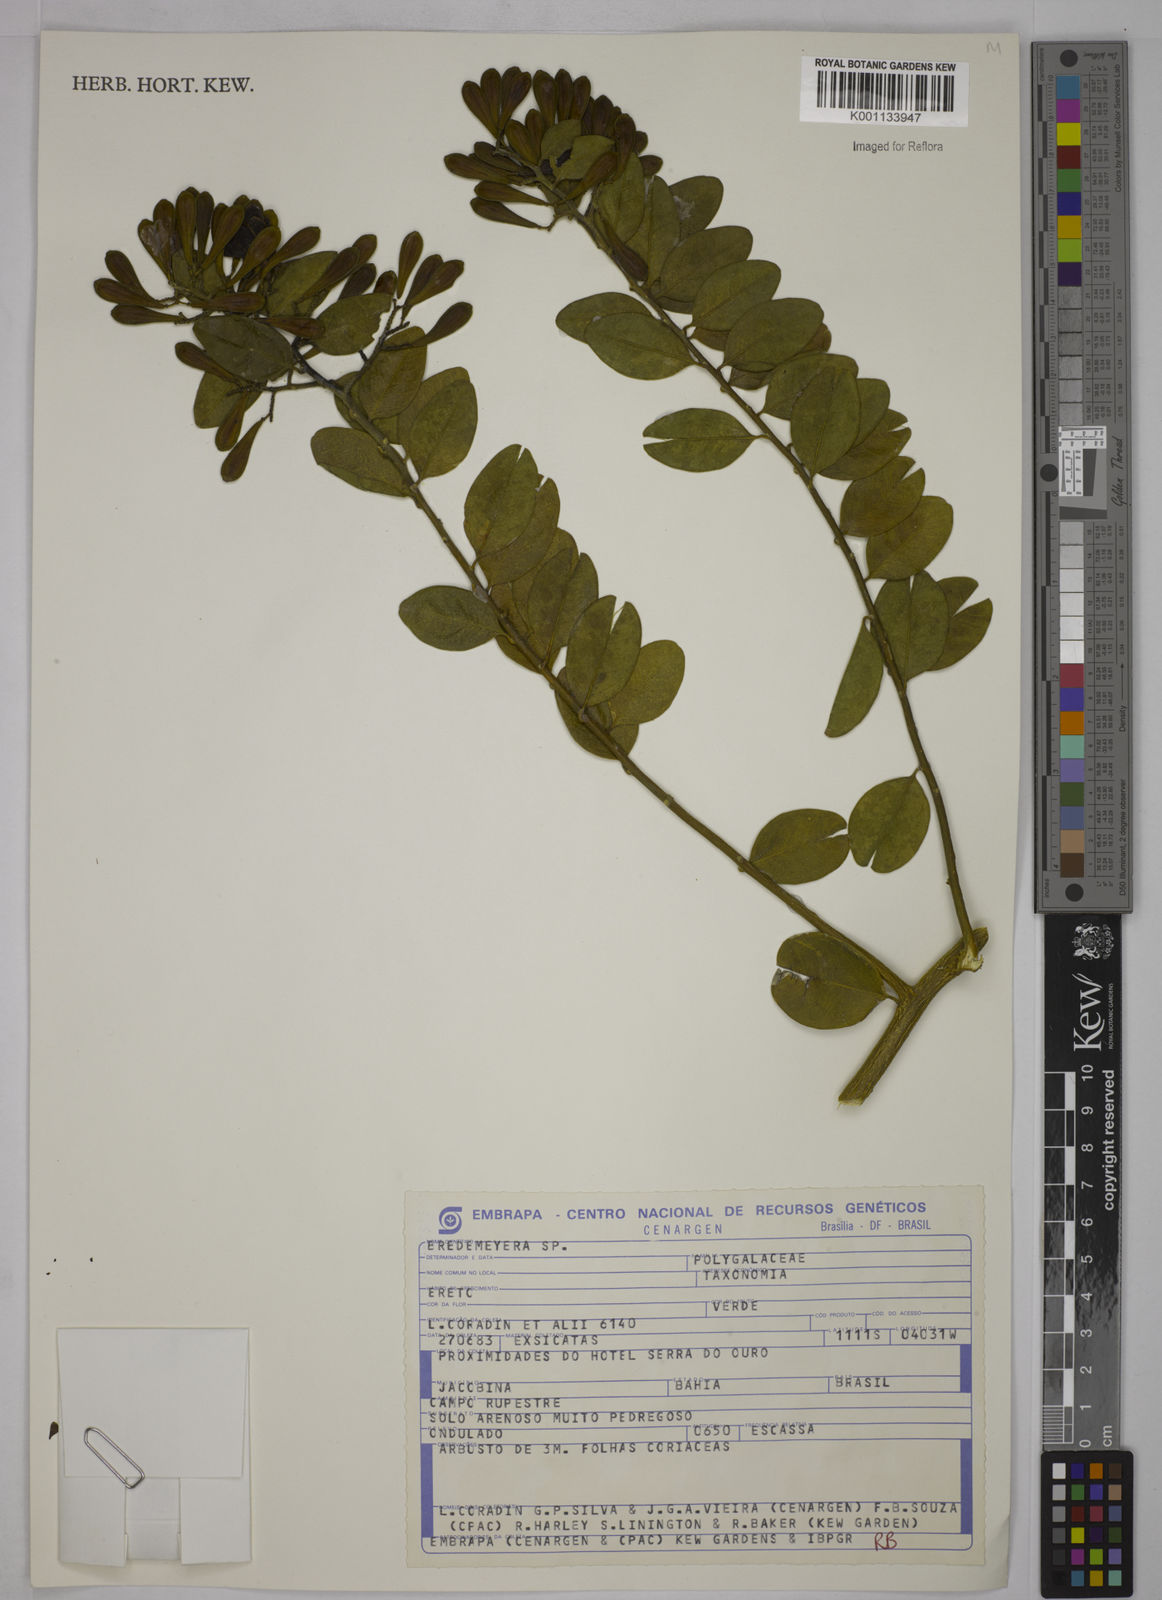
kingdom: Plantae
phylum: Tracheophyta
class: Magnoliopsida
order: Fabales
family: Polygalaceae
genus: Bredemeyera
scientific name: Bredemeyera
